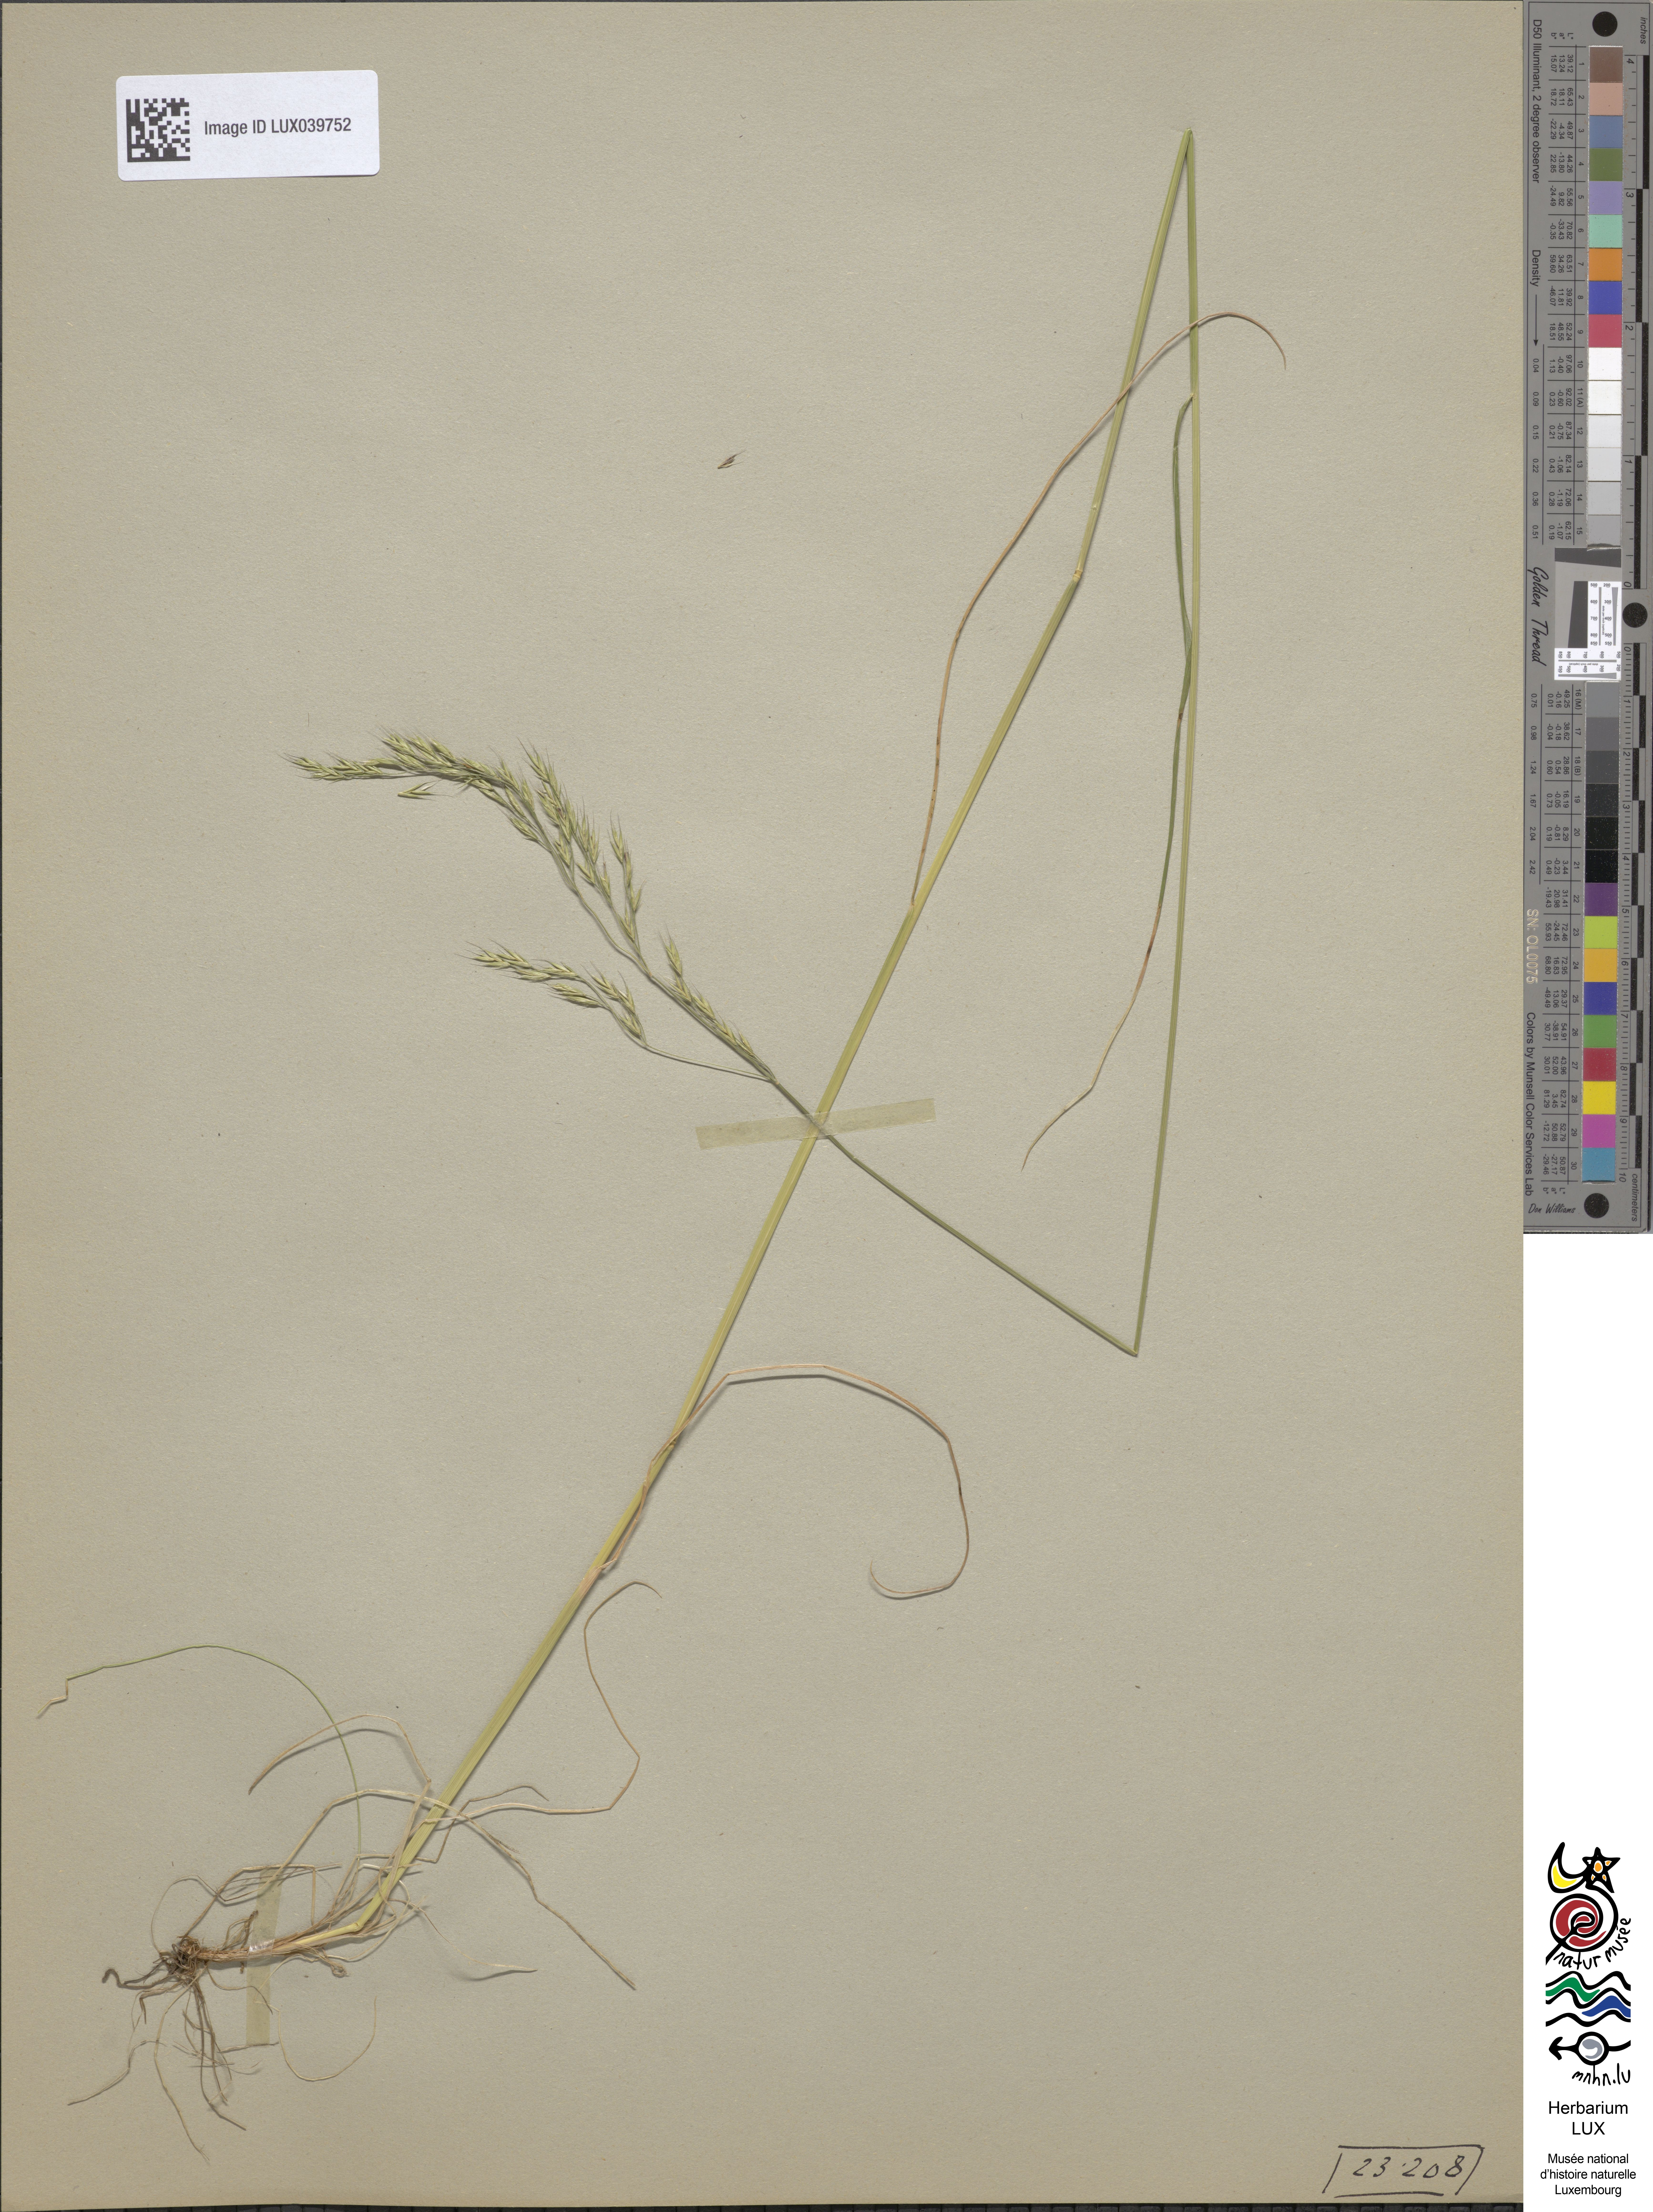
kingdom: Plantae
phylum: Tracheophyta
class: Liliopsida
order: Poales
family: Poaceae
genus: Festuca
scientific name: Festuca heterophylla
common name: Various-leaved fescue
